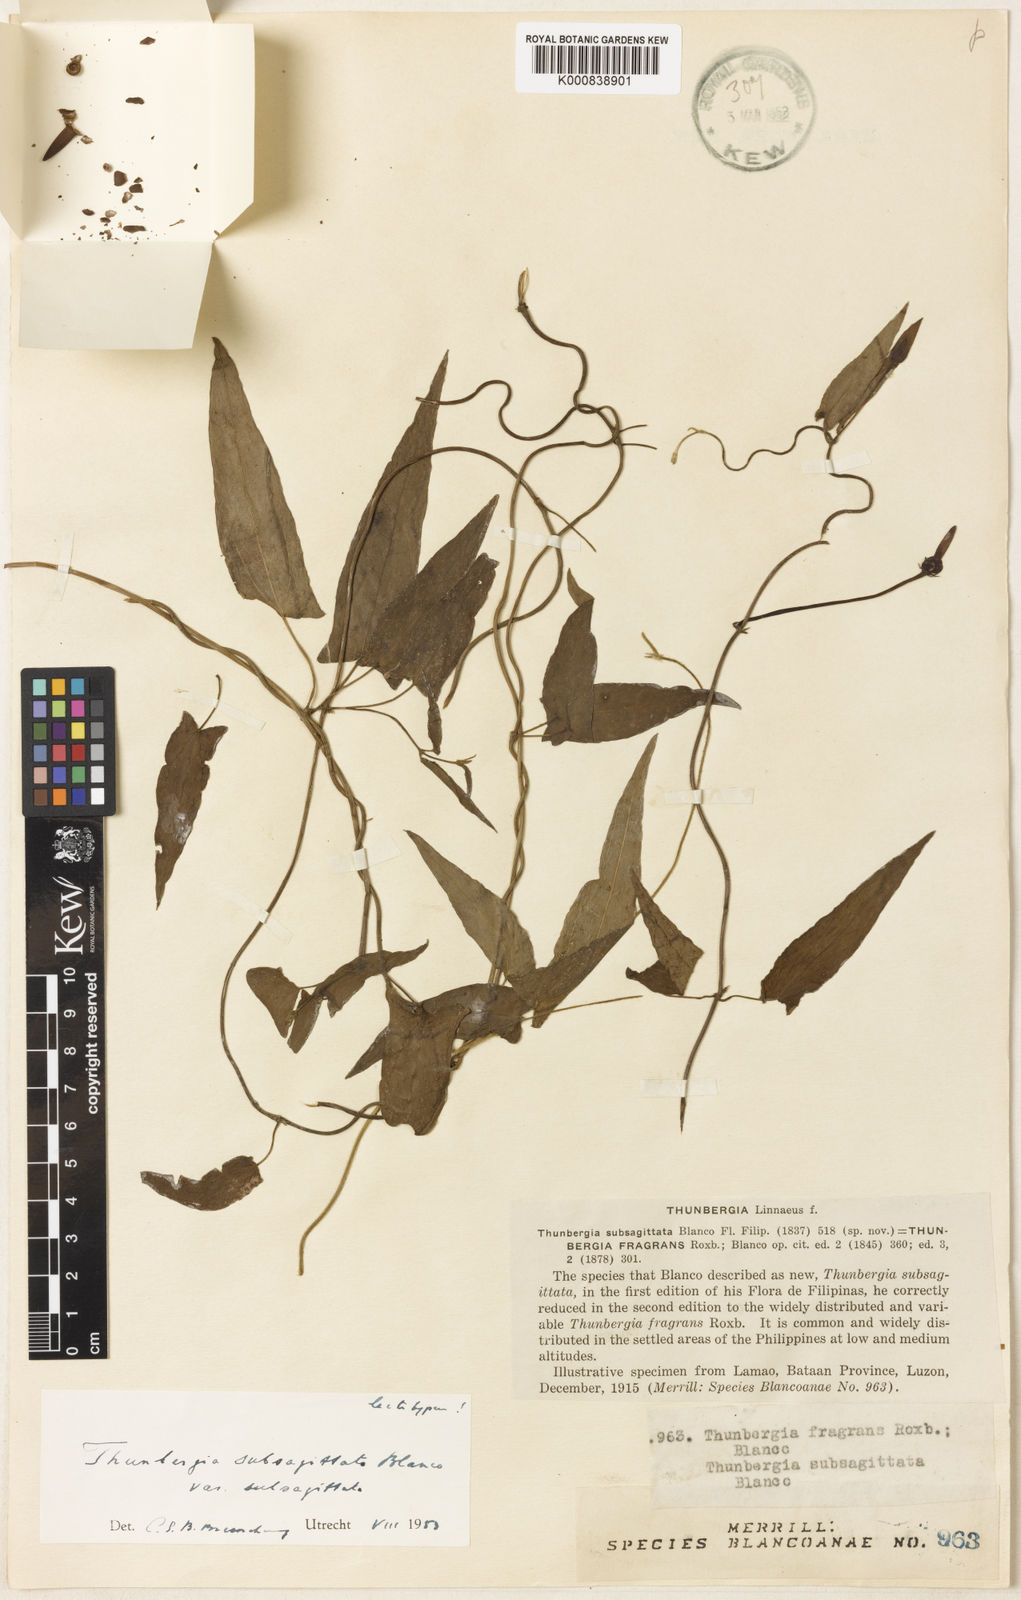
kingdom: Plantae
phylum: Tracheophyta
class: Magnoliopsida
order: Lamiales
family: Acanthaceae
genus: Thunbergia
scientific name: Thunbergia fragrans
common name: Whitelady
